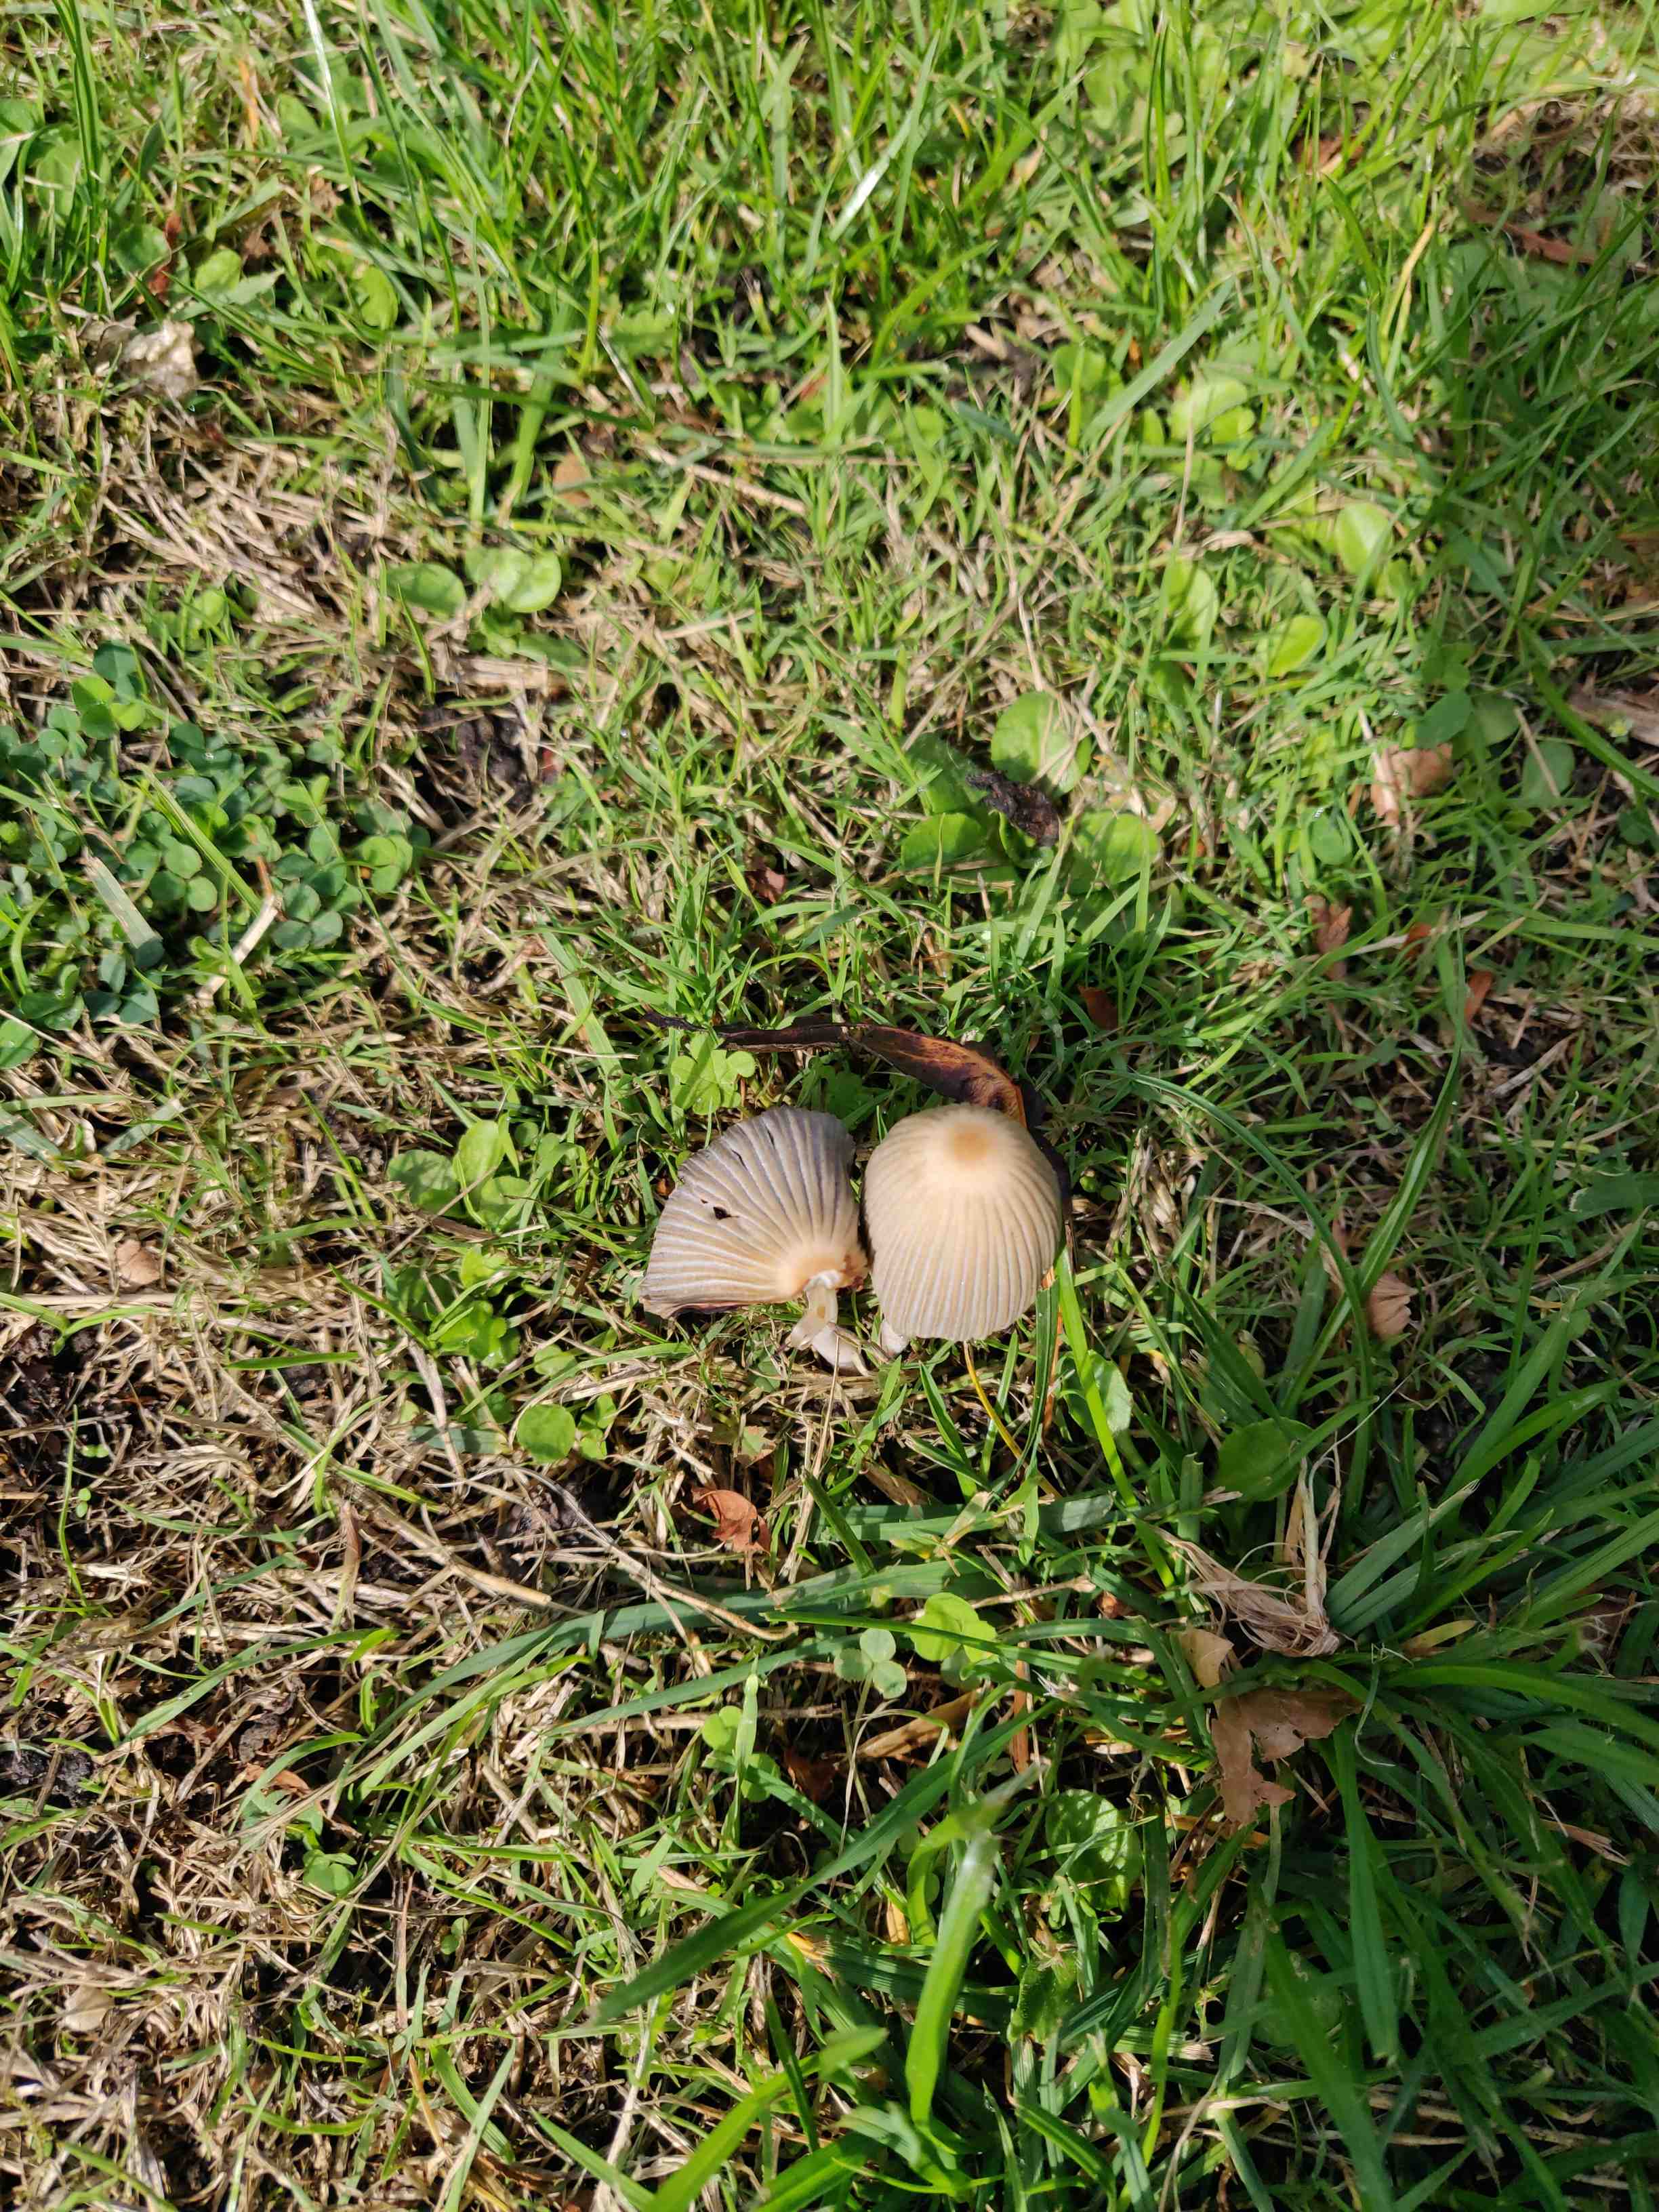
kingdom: Fungi
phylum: Basidiomycota
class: Agaricomycetes
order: Agaricales
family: Psathyrellaceae
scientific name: Psathyrellaceae
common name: mørkhatfamilien
